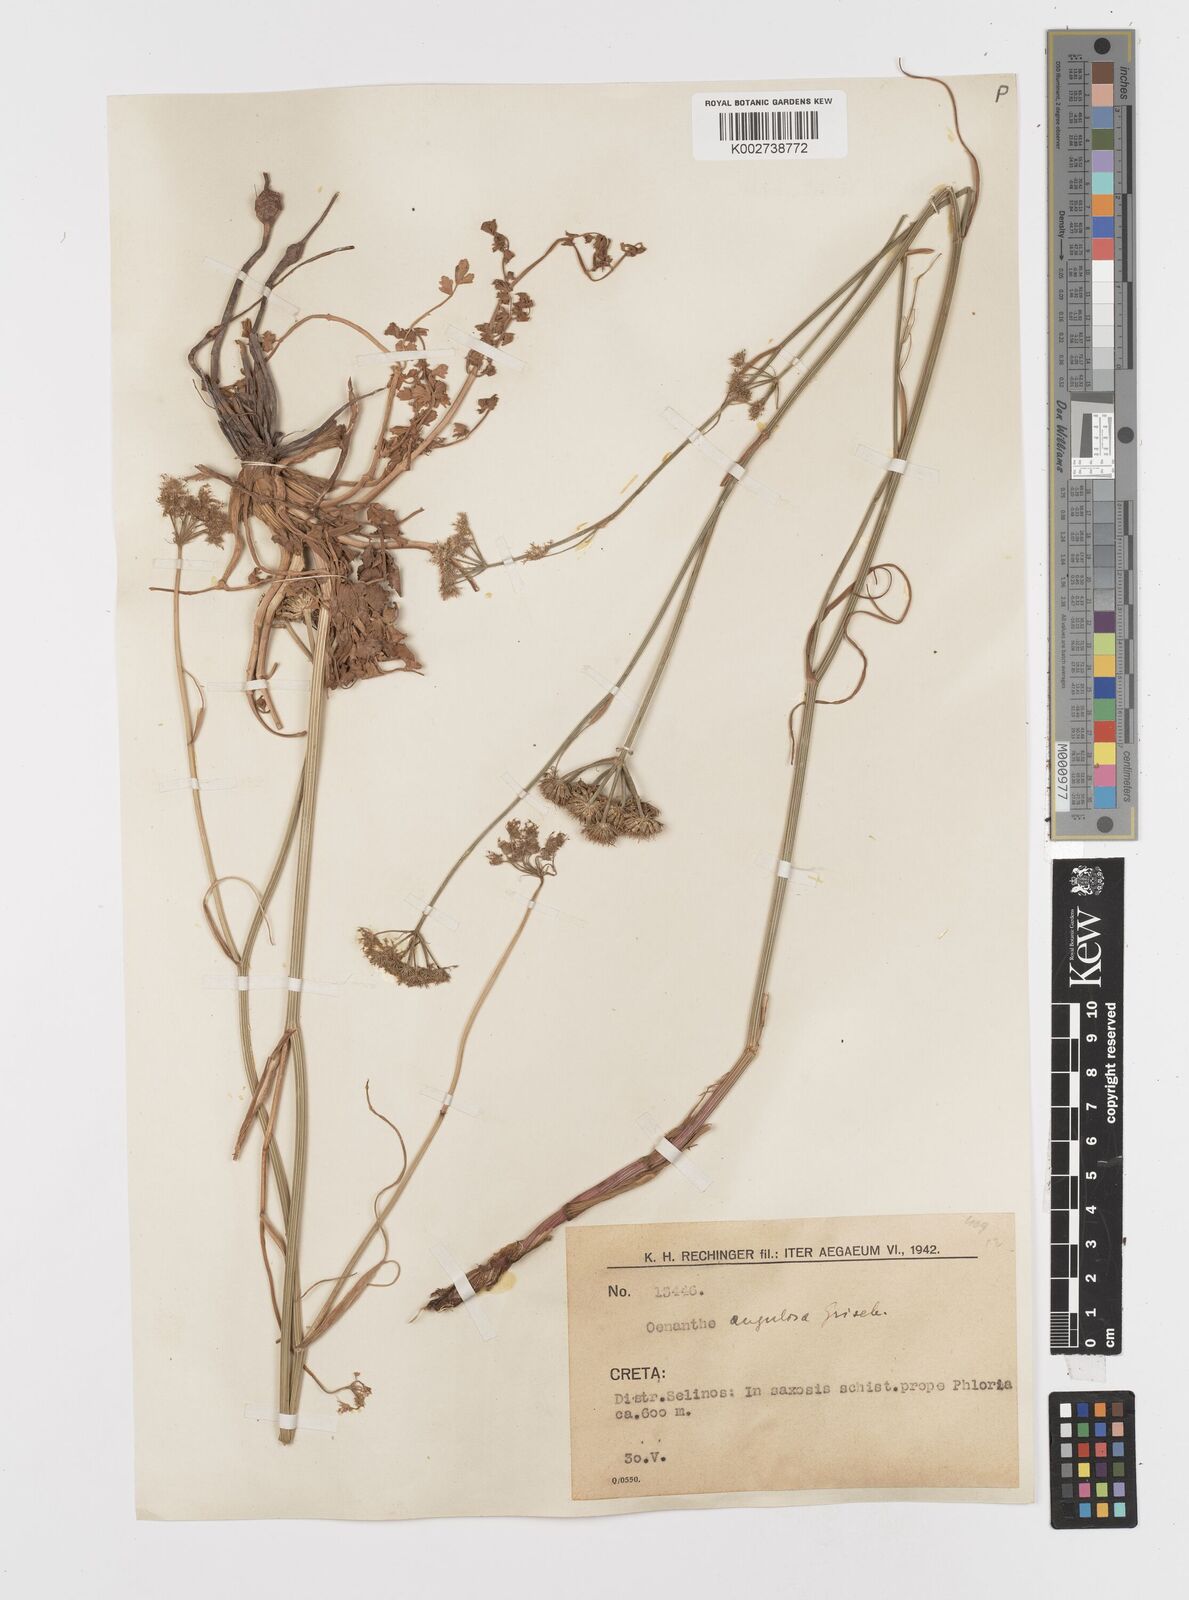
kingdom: Plantae
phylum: Tracheophyta
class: Magnoliopsida
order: Apiales
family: Apiaceae
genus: Oenanthe
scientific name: Oenanthe pimpinelloides
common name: Corky-fruited water-dropwort
